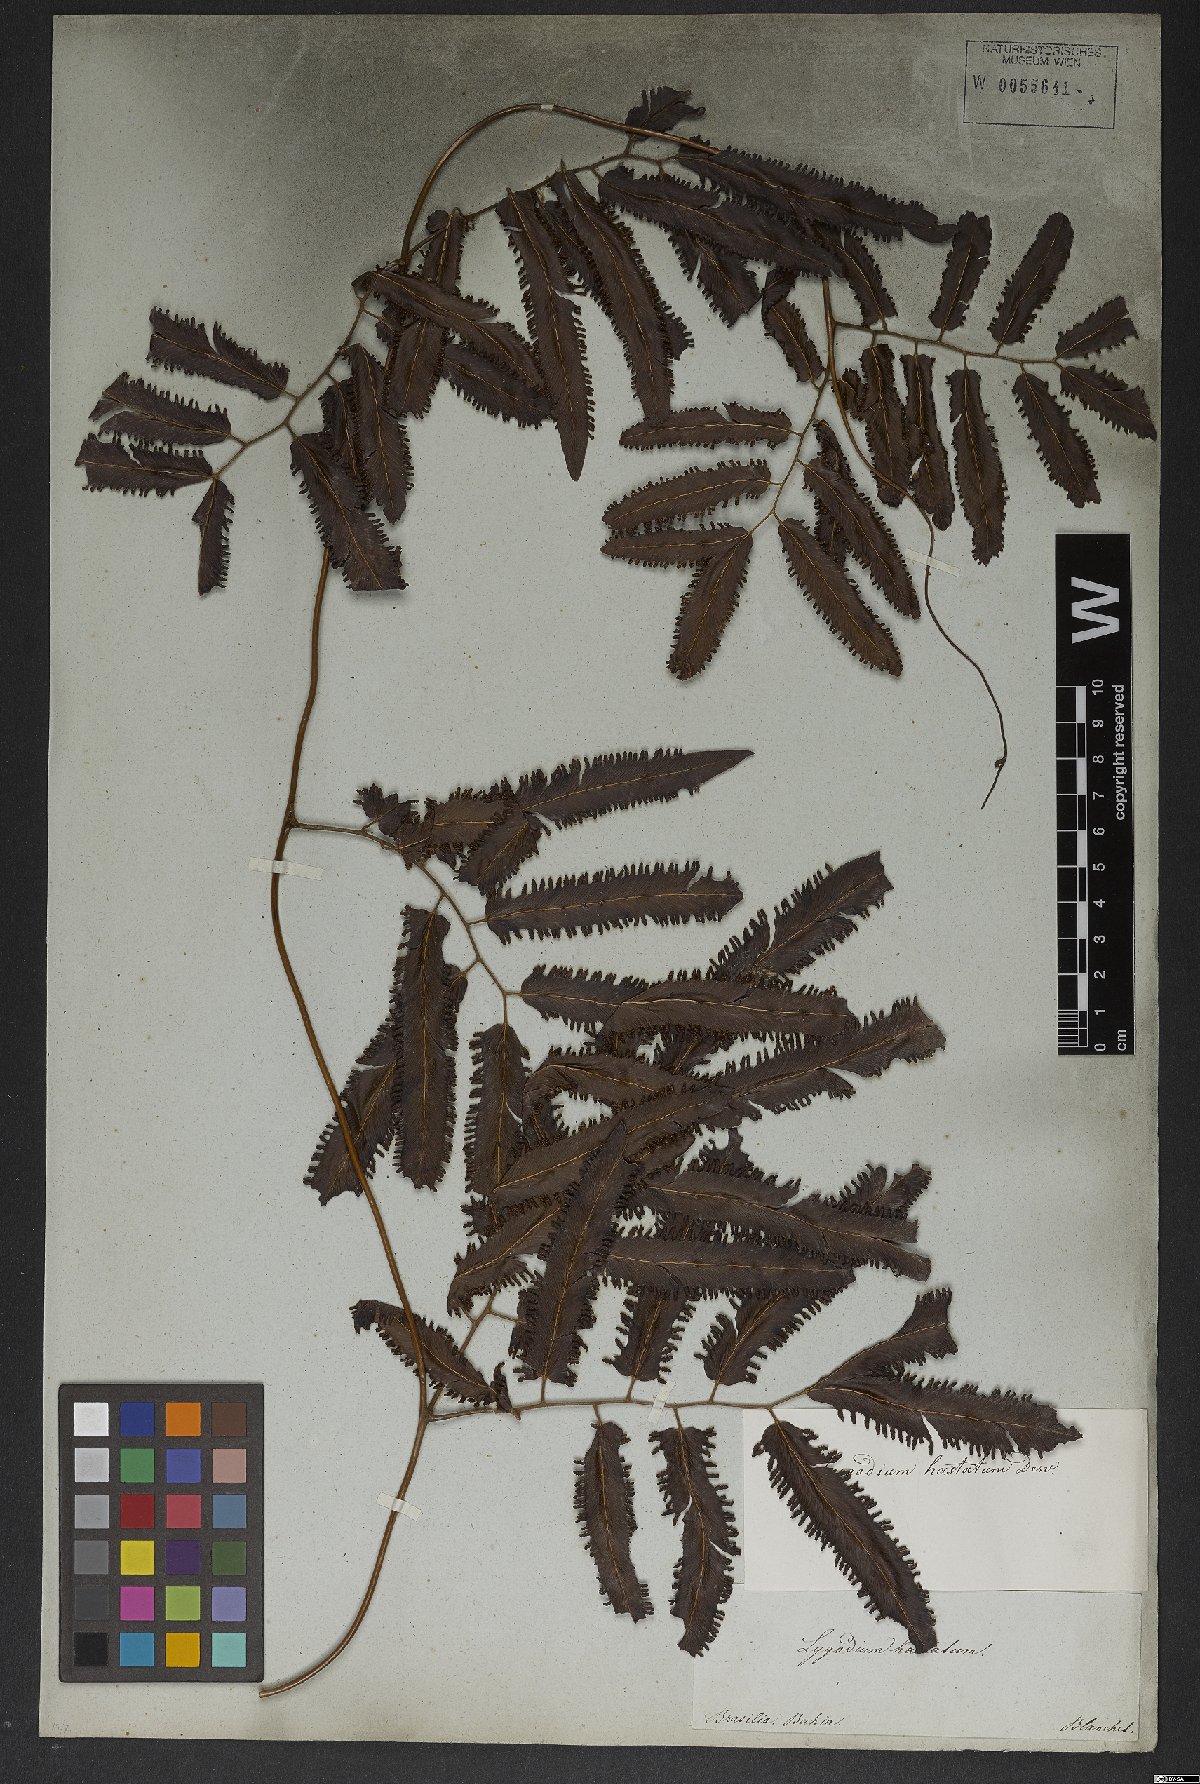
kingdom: Plantae
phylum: Tracheophyta
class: Polypodiopsida
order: Schizaeales
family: Lygodiaceae
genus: Lygodium
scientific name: Lygodium volubile
